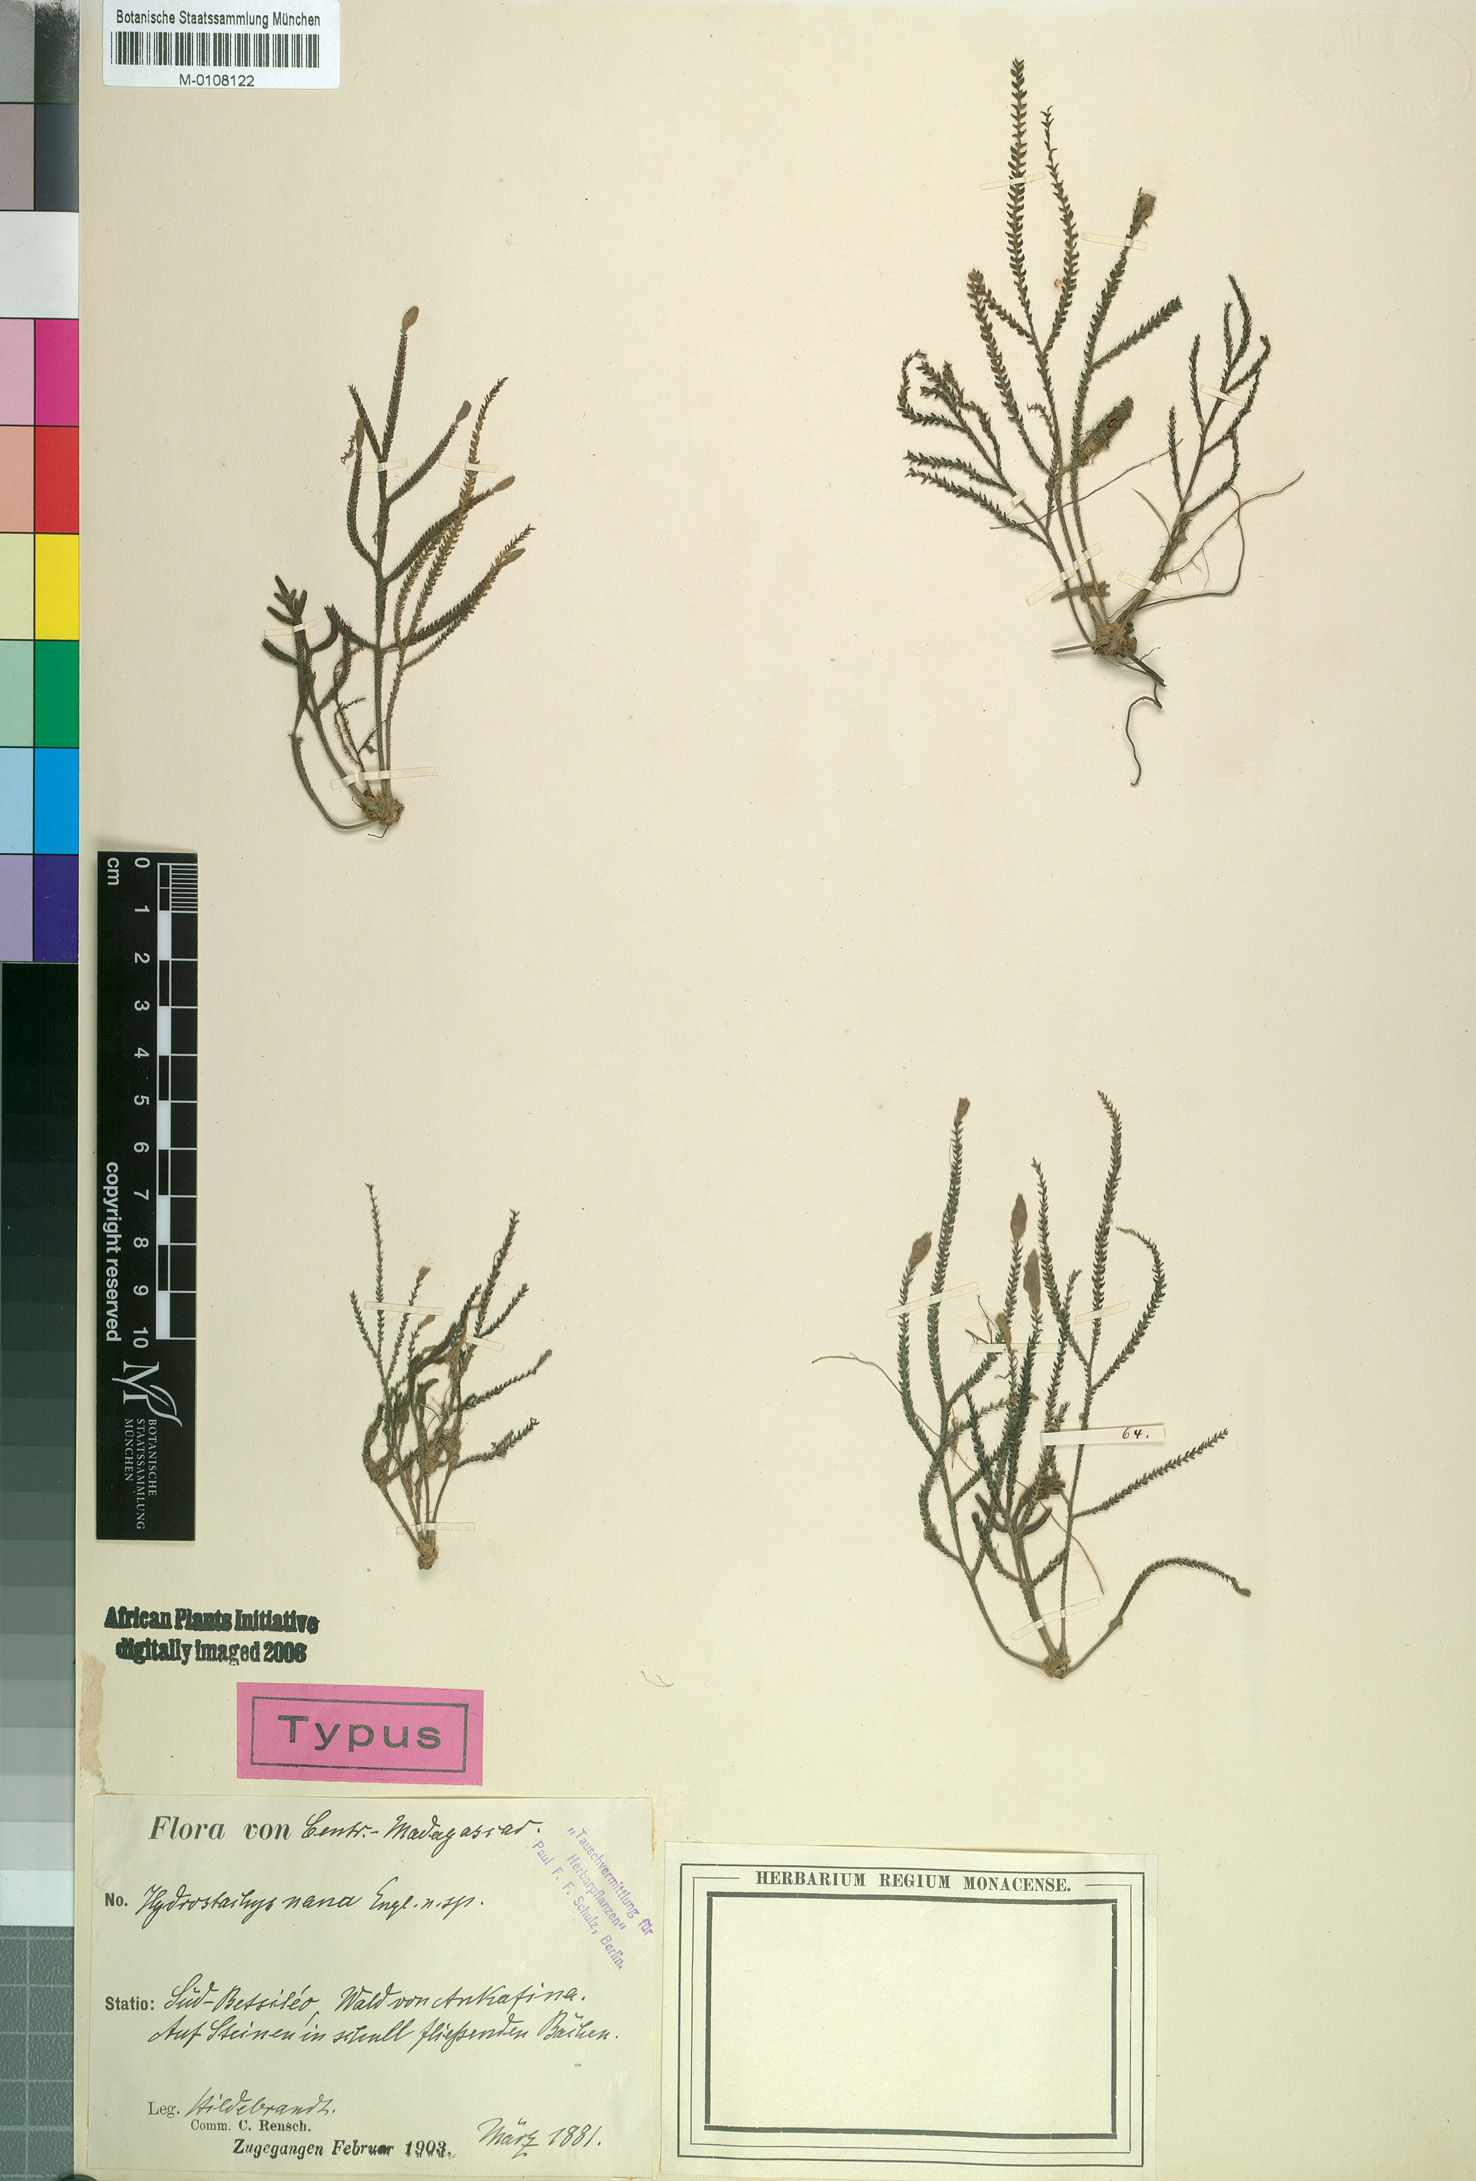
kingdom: Plantae
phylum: Tracheophyta
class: Magnoliopsida
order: Cornales
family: Hydrostachyaceae
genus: Hydrostachys
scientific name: Hydrostachys distichophylla
